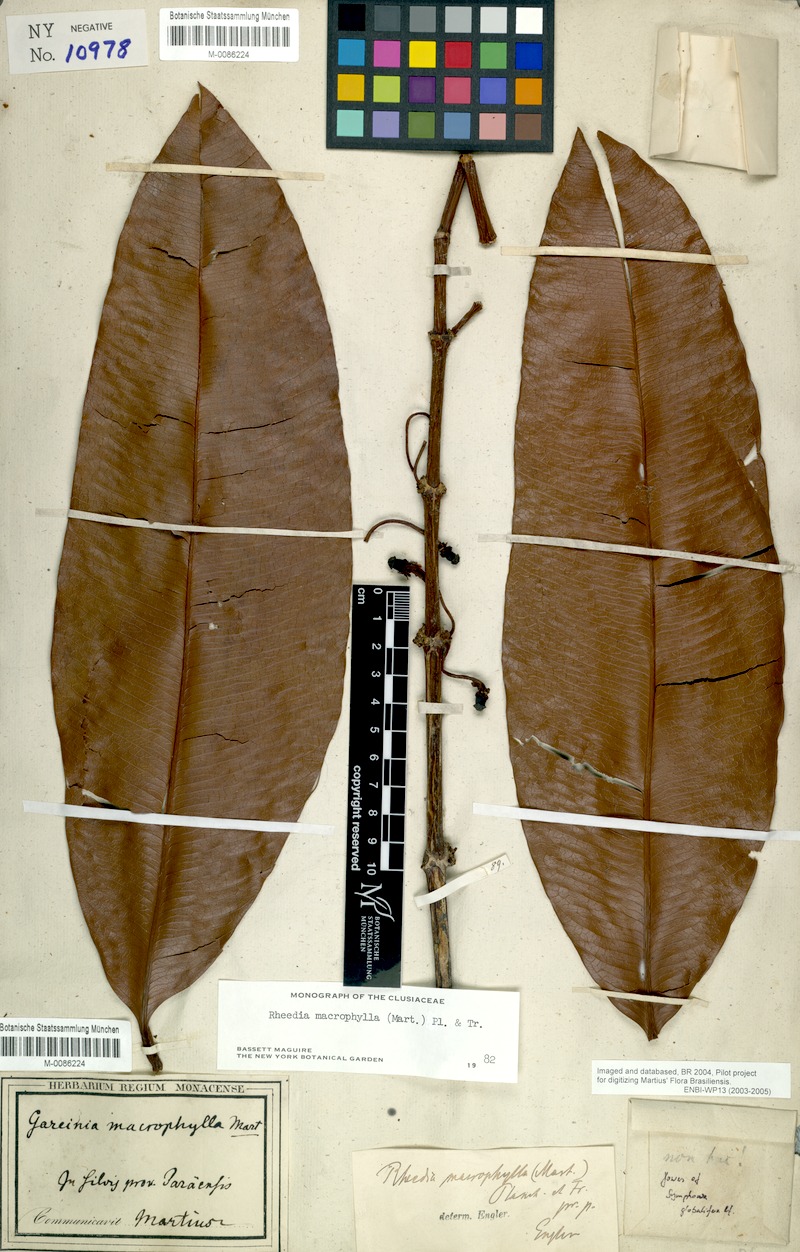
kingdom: Plantae
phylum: Tracheophyta
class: Magnoliopsida
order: Malpighiales
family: Clusiaceae
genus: Garcinia
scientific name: Garcinia macrophylla
